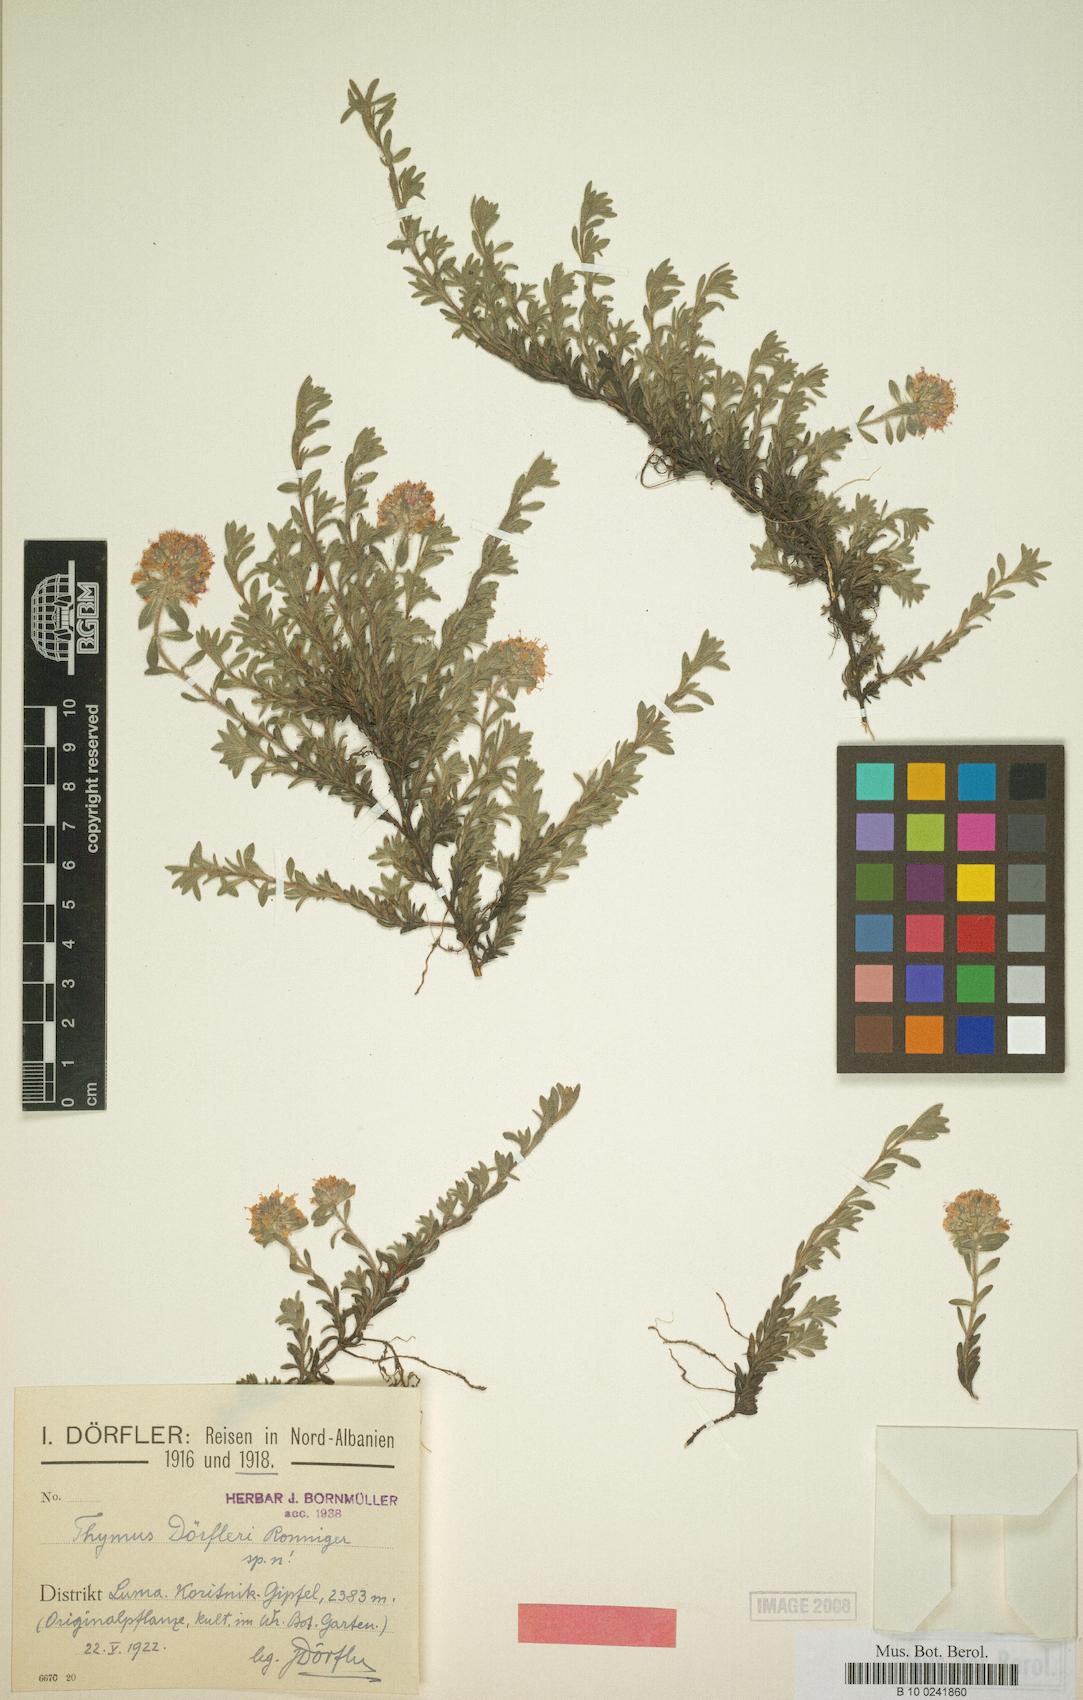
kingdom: Plantae
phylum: Tracheophyta
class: Magnoliopsida
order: Lamiales
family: Lamiaceae
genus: Thymus
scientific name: Thymus doerfleri
